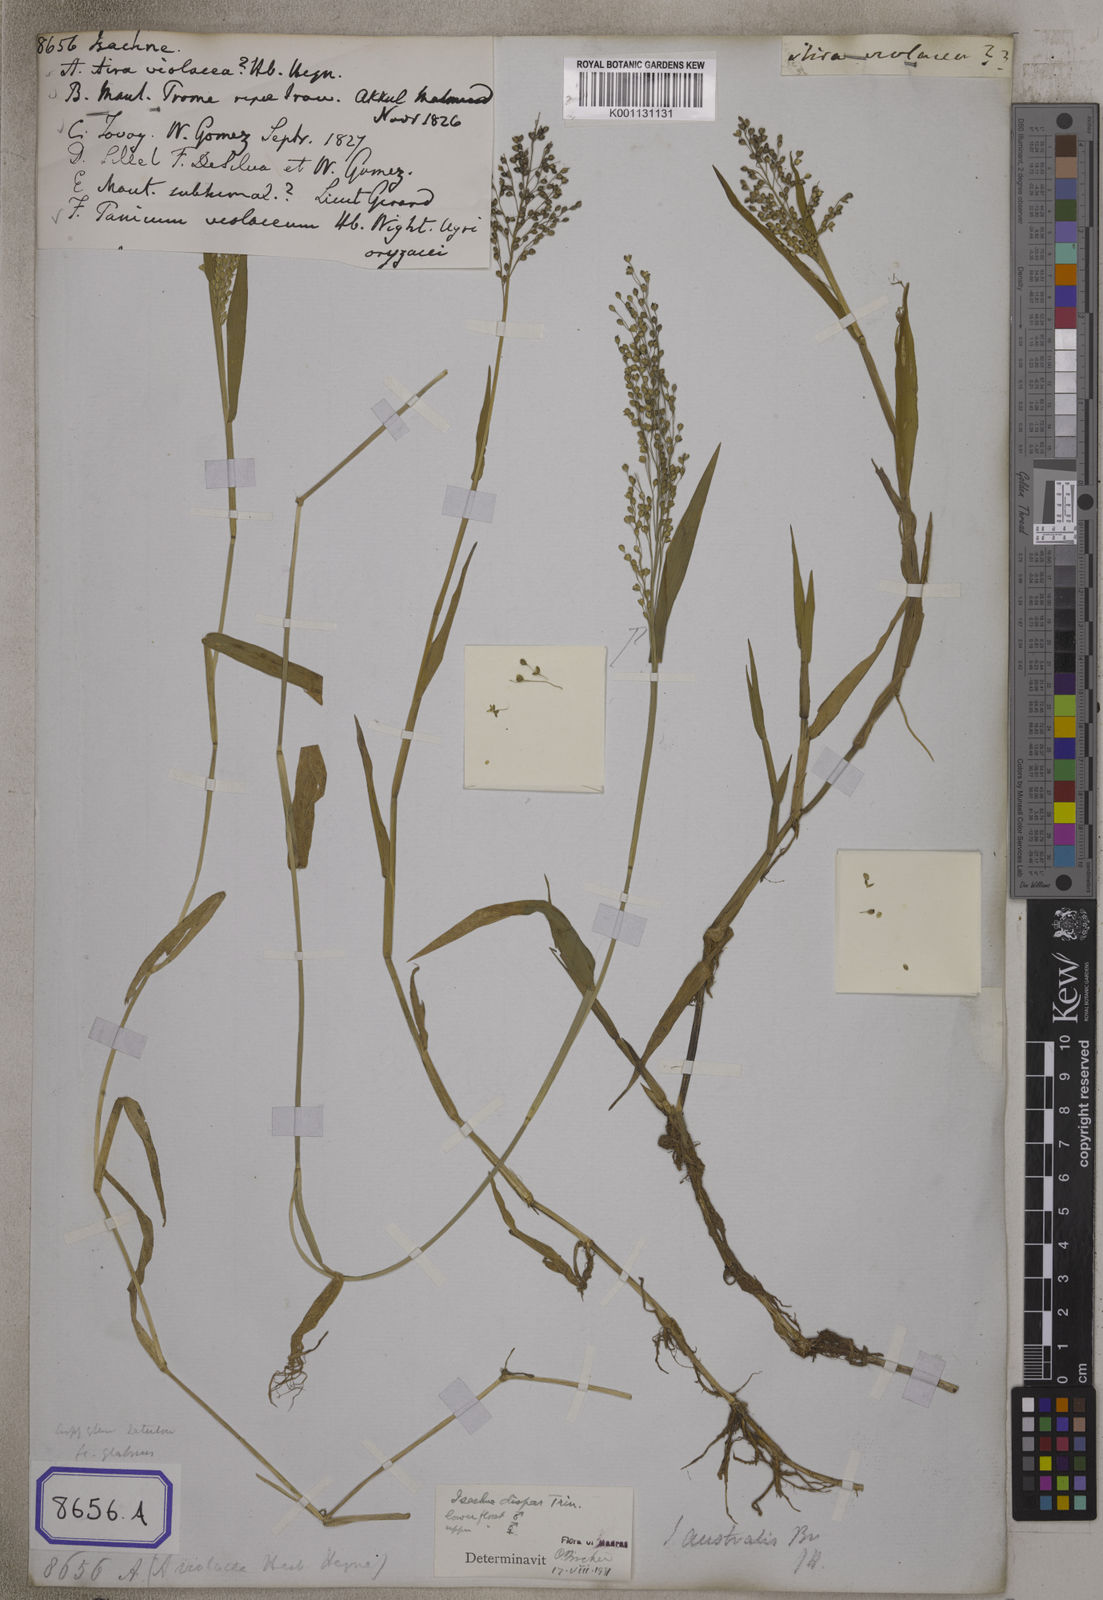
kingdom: Plantae
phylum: Tracheophyta
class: Liliopsida
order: Poales
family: Poaceae
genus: Isachne
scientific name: Isachne
